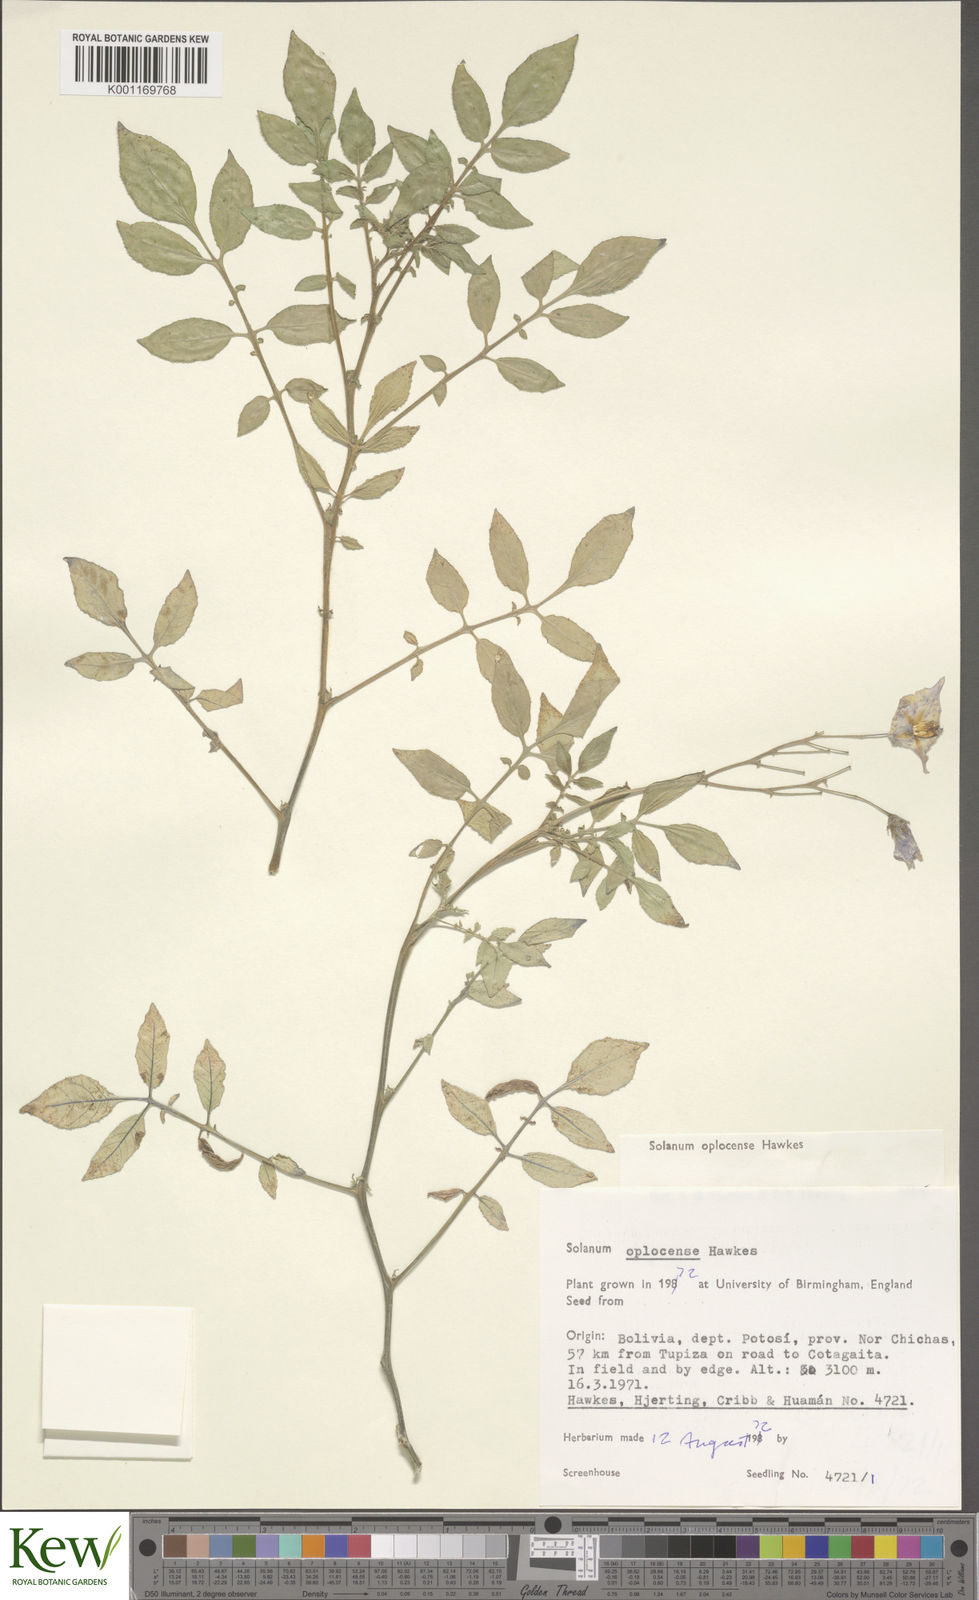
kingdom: Plantae
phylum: Tracheophyta
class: Magnoliopsida
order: Solanales
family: Solanaceae
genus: Solanum
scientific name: Solanum brevicaule
